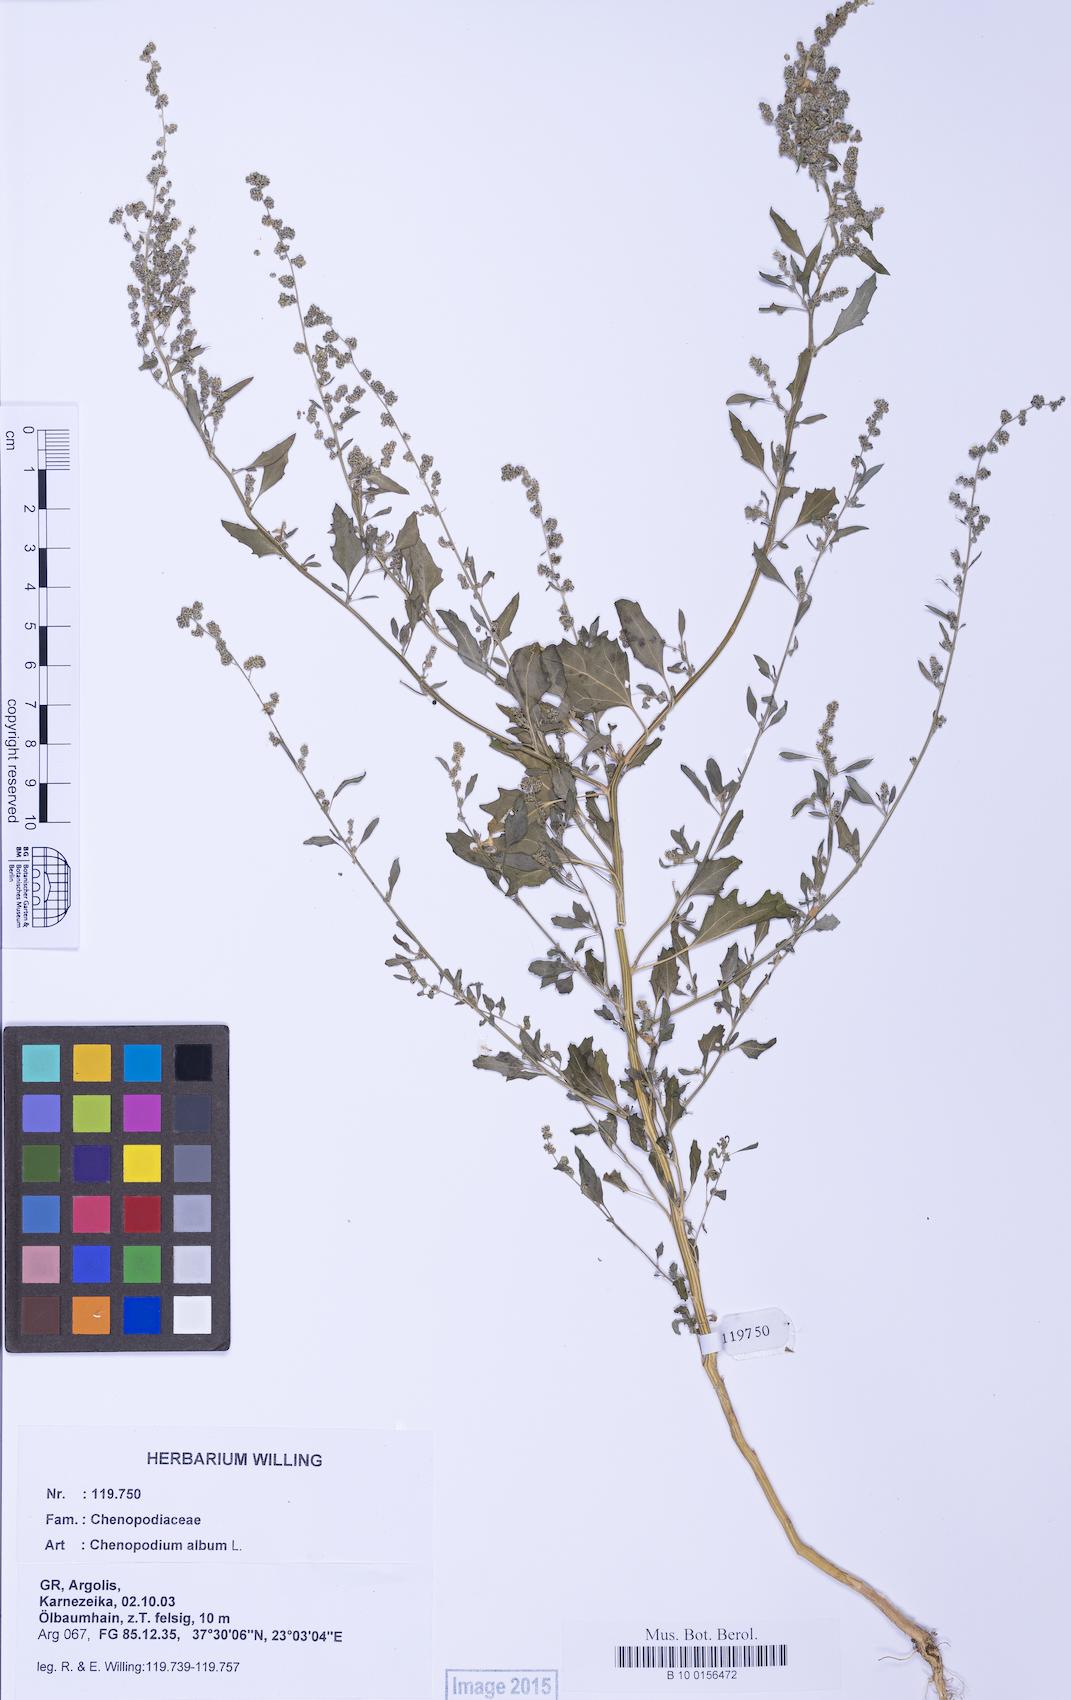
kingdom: Plantae
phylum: Tracheophyta
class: Magnoliopsida
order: Caryophyllales
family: Amaranthaceae
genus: Chenopodium
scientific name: Chenopodium album
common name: Fat-hen
